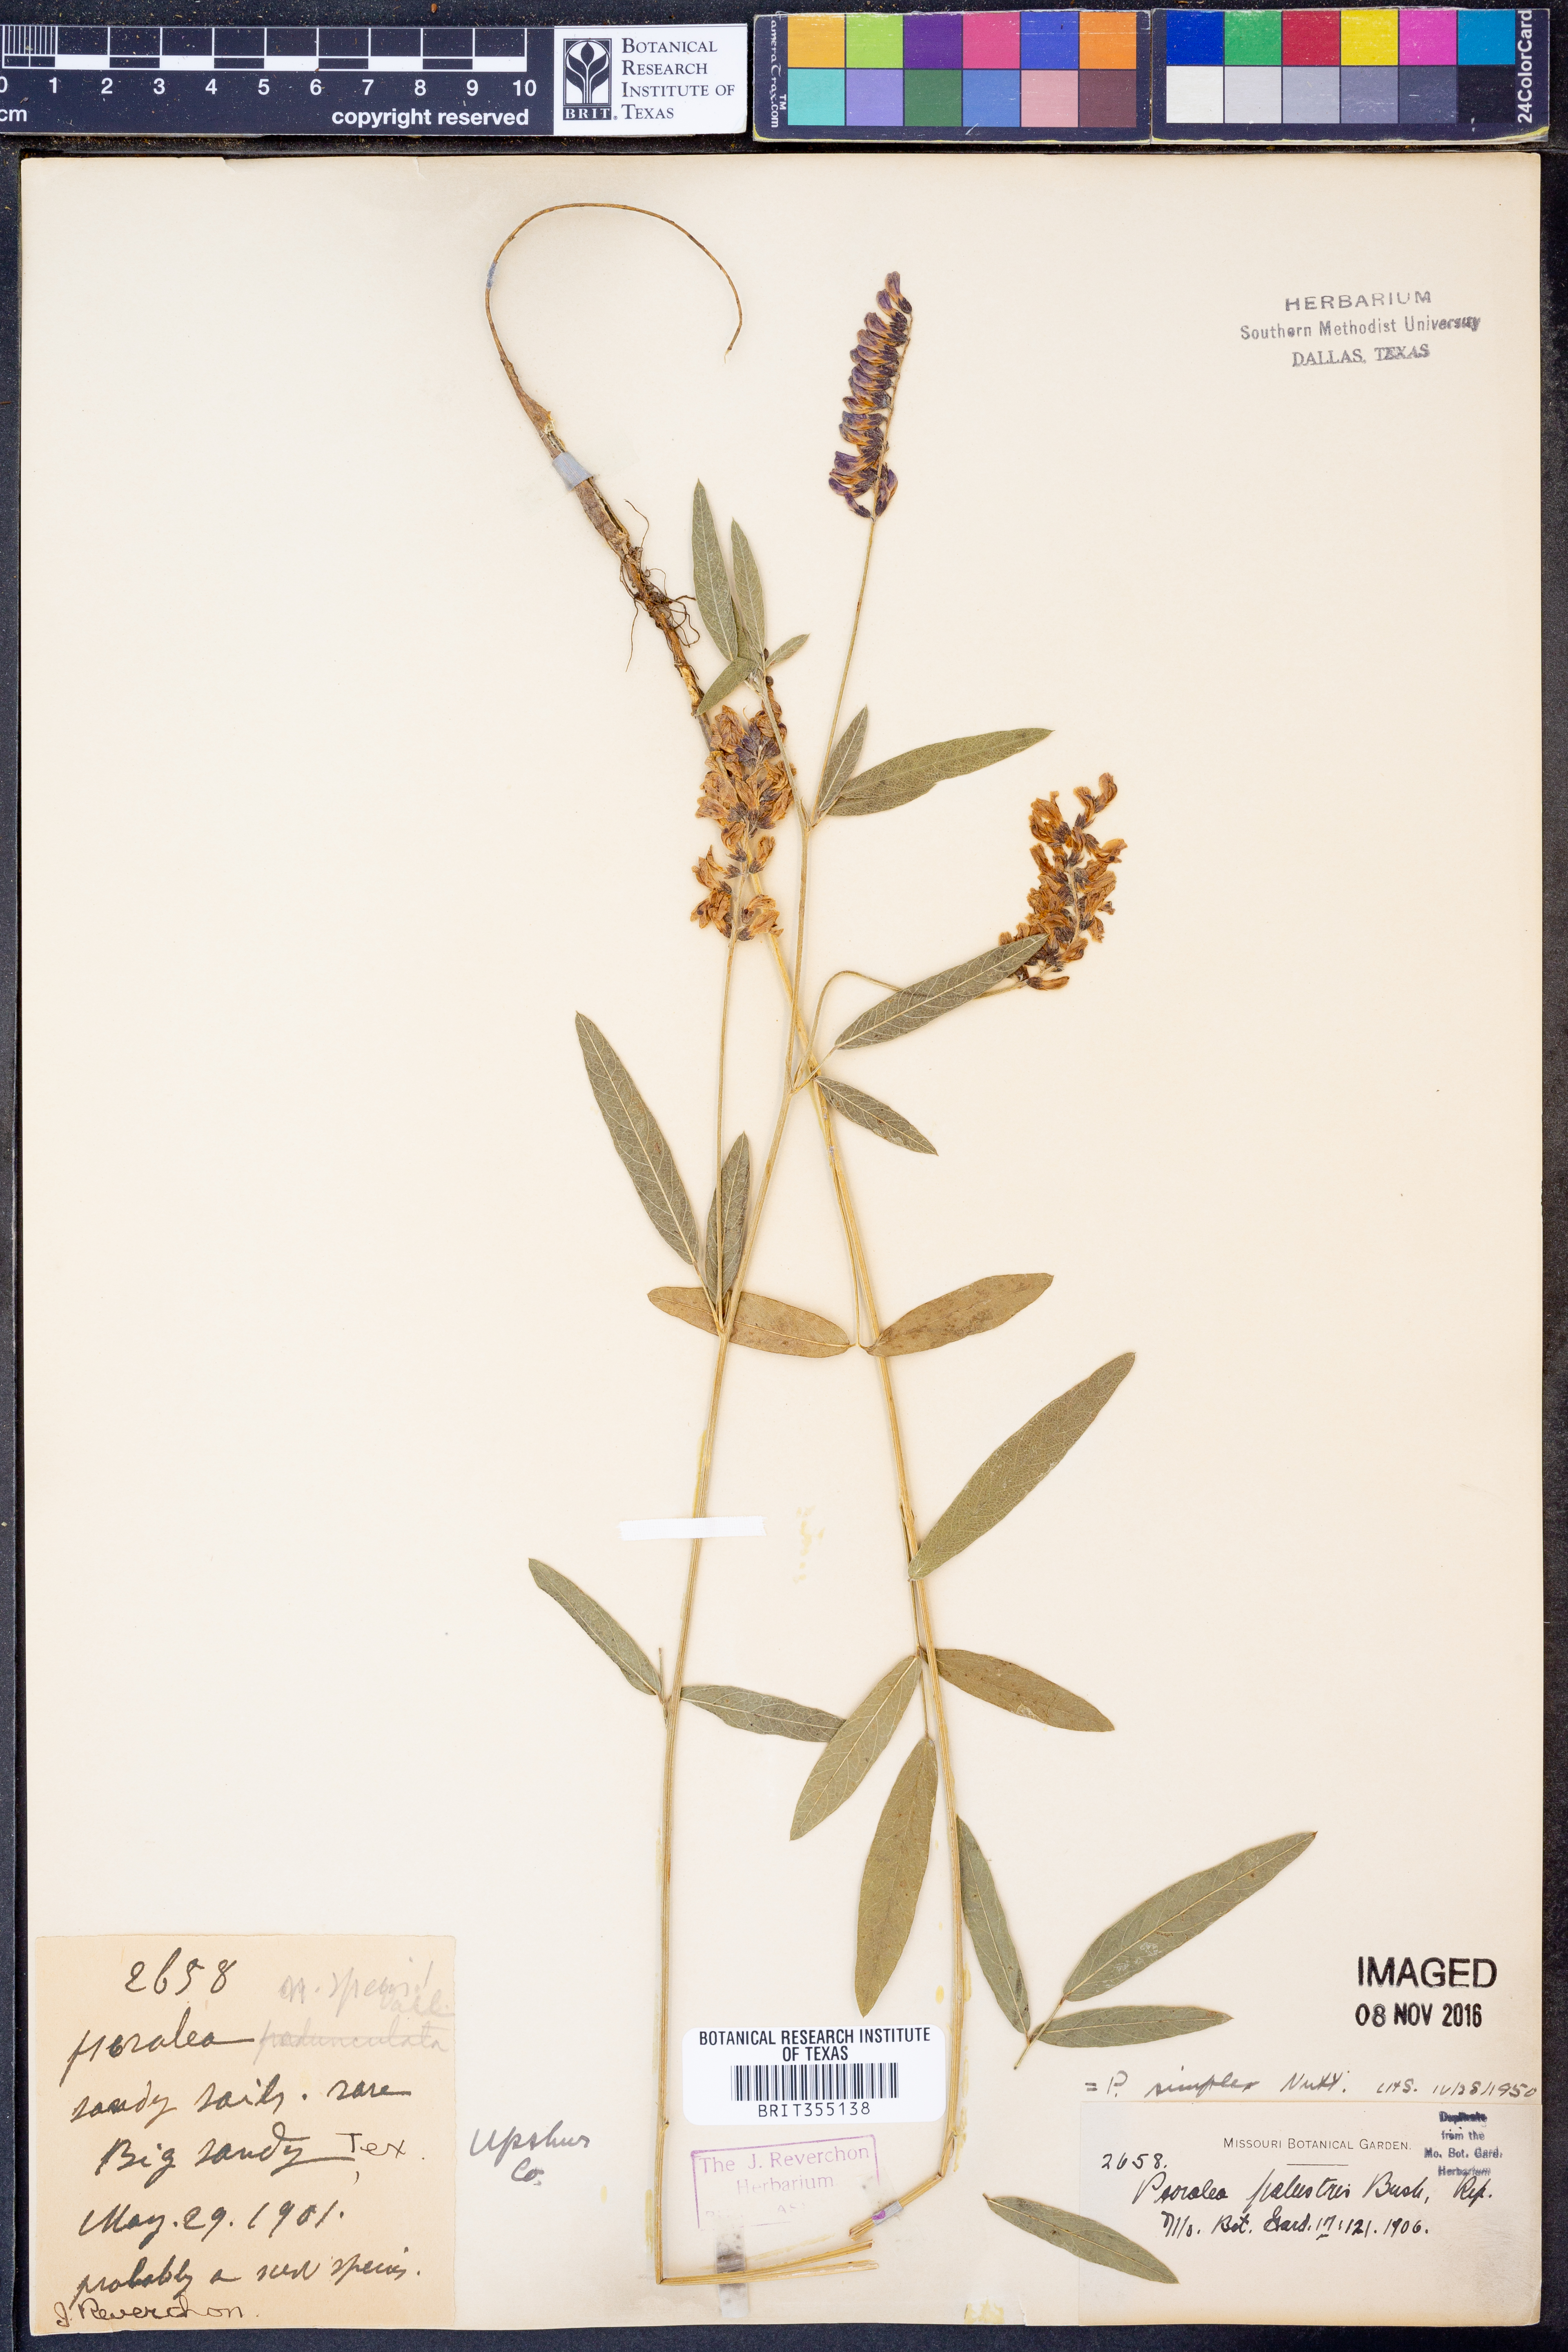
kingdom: Plantae
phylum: Tracheophyta
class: Magnoliopsida
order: Fabales
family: Fabaceae
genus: Orbexilum
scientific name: Orbexilum simplex
